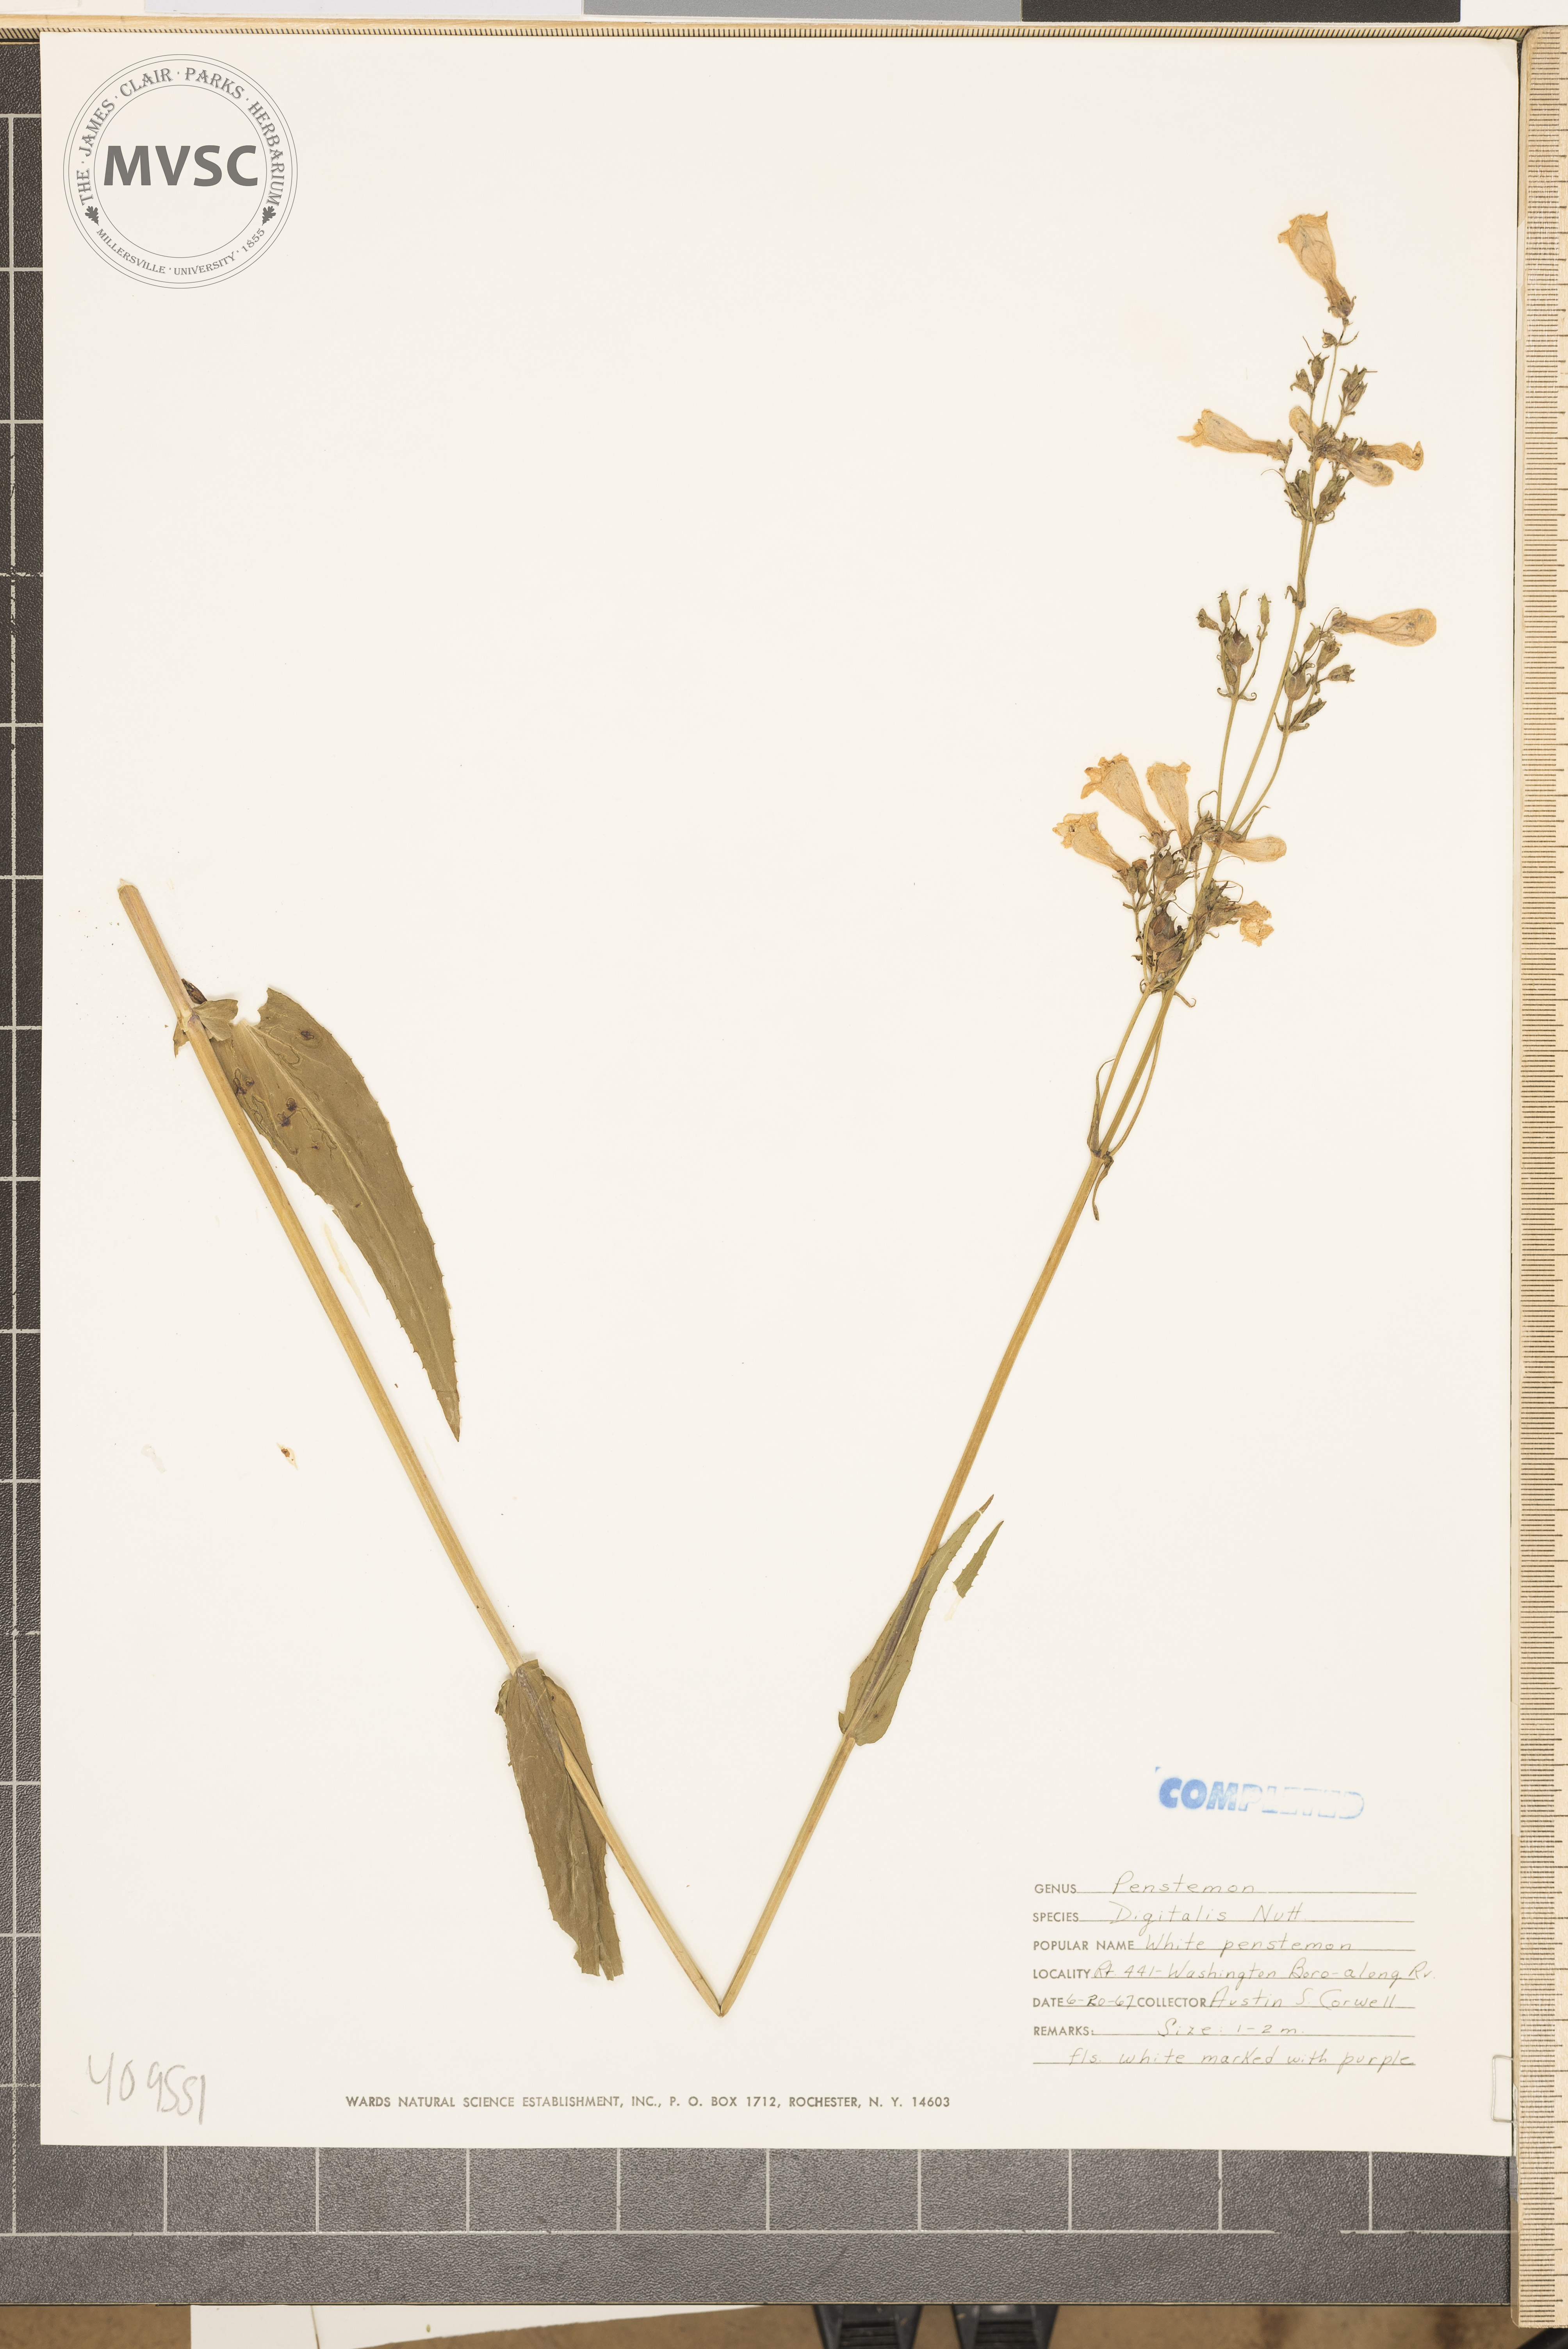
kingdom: Plantae
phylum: Tracheophyta
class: Magnoliopsida
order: Lamiales
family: Plantaginaceae
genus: Penstemon
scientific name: Penstemon digitalis
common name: Foxglove beardtongue
